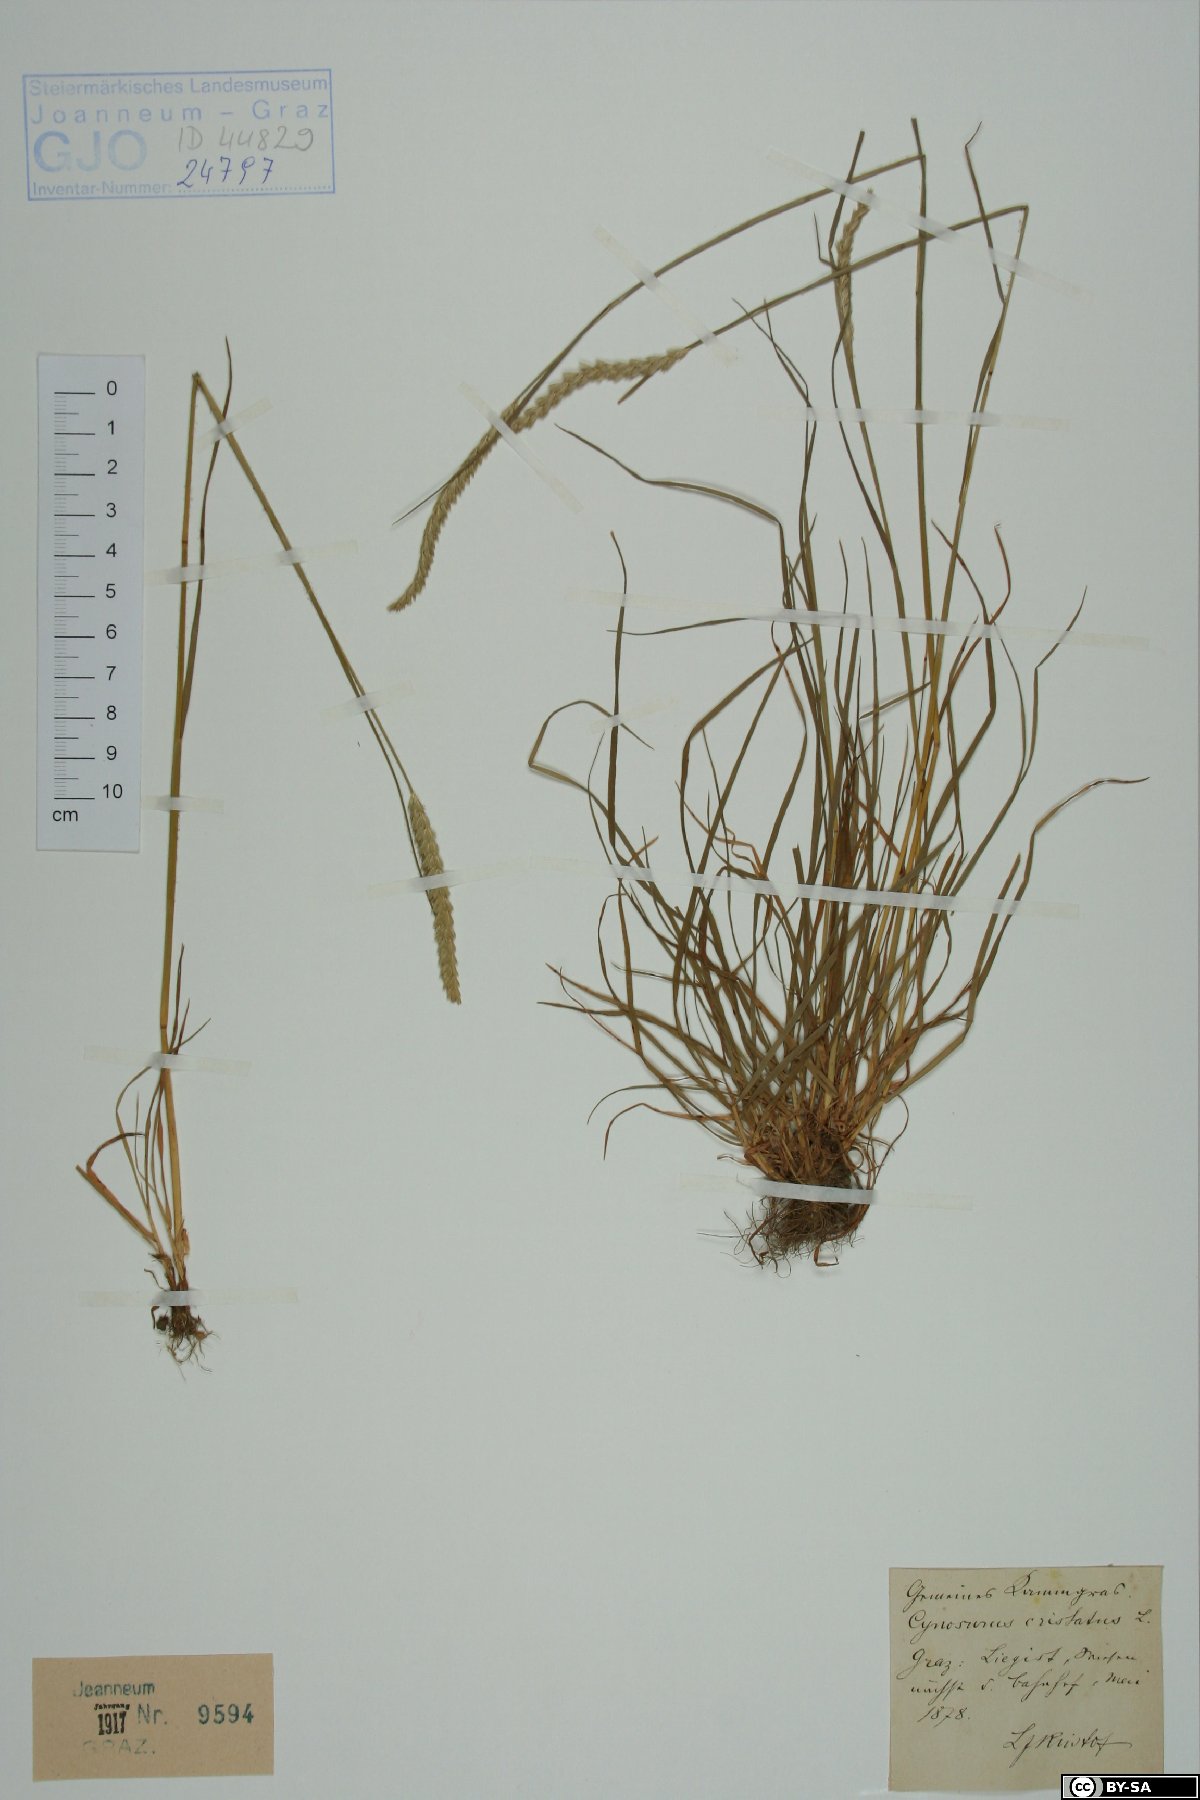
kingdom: Plantae
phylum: Tracheophyta
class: Liliopsida
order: Poales
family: Poaceae
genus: Cynosurus
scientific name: Cynosurus cristatus
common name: Crested dog's-tail
